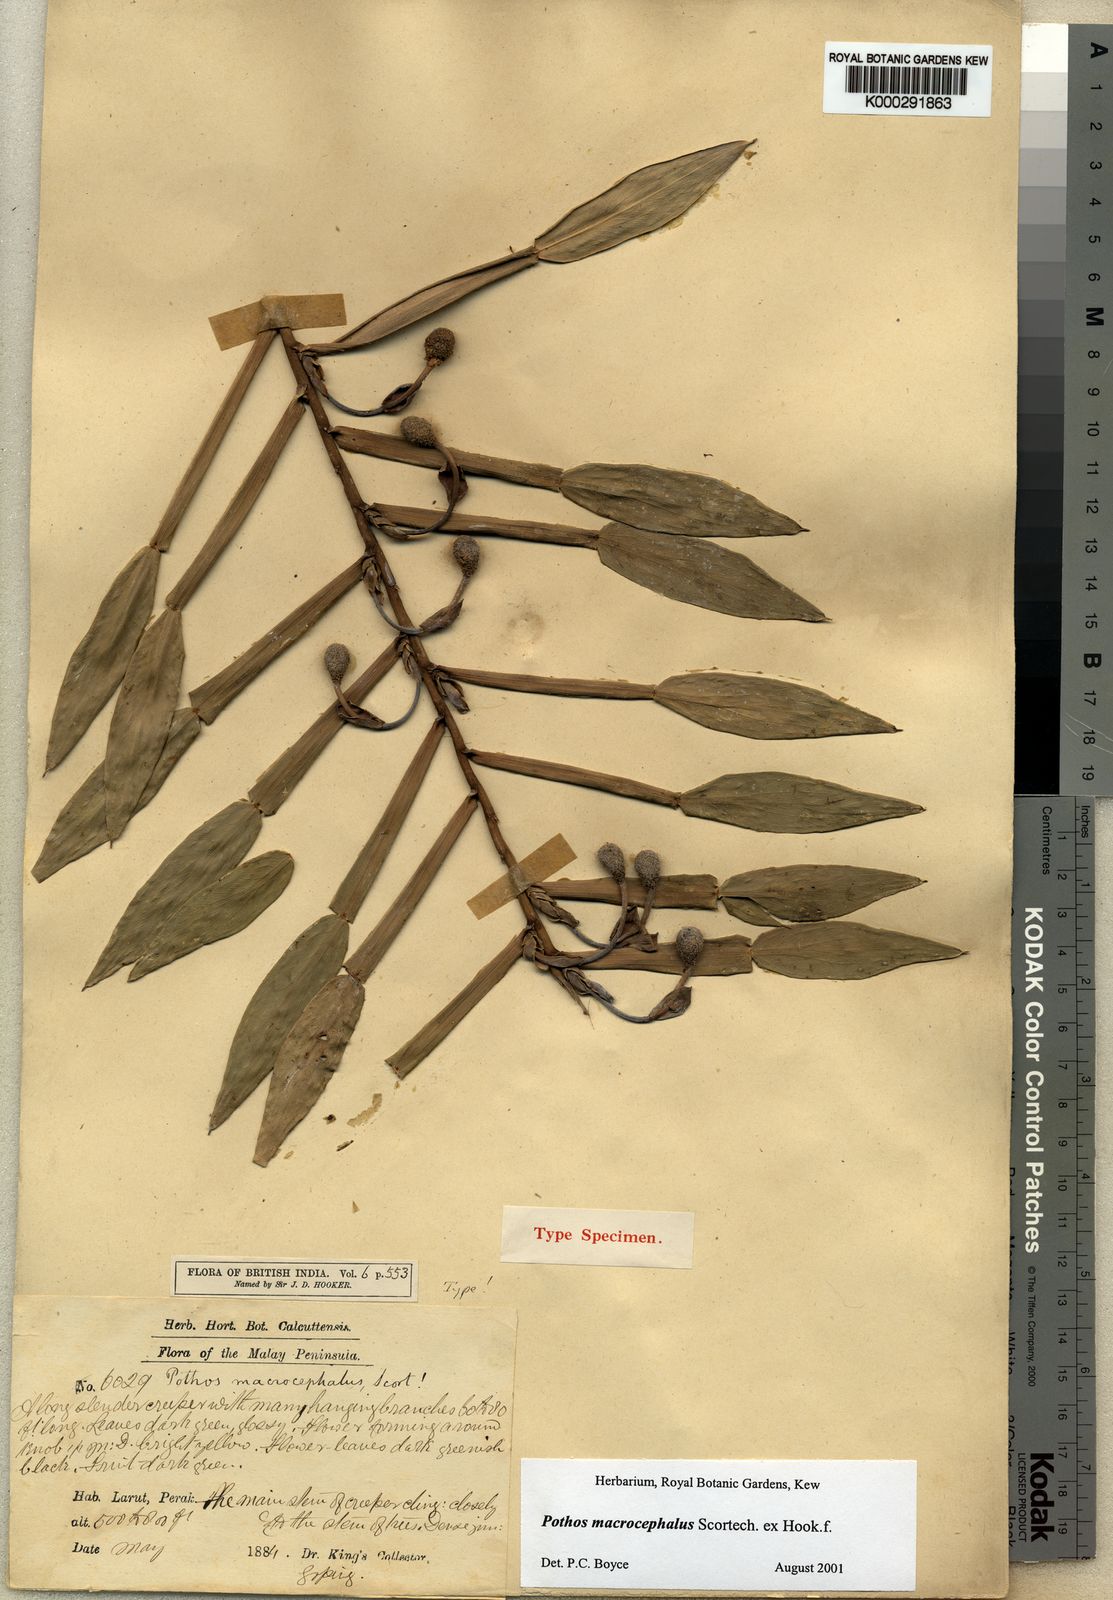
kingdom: Plantae
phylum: Tracheophyta
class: Liliopsida
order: Alismatales
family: Araceae
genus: Pothos
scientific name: Pothos macrocephalus
